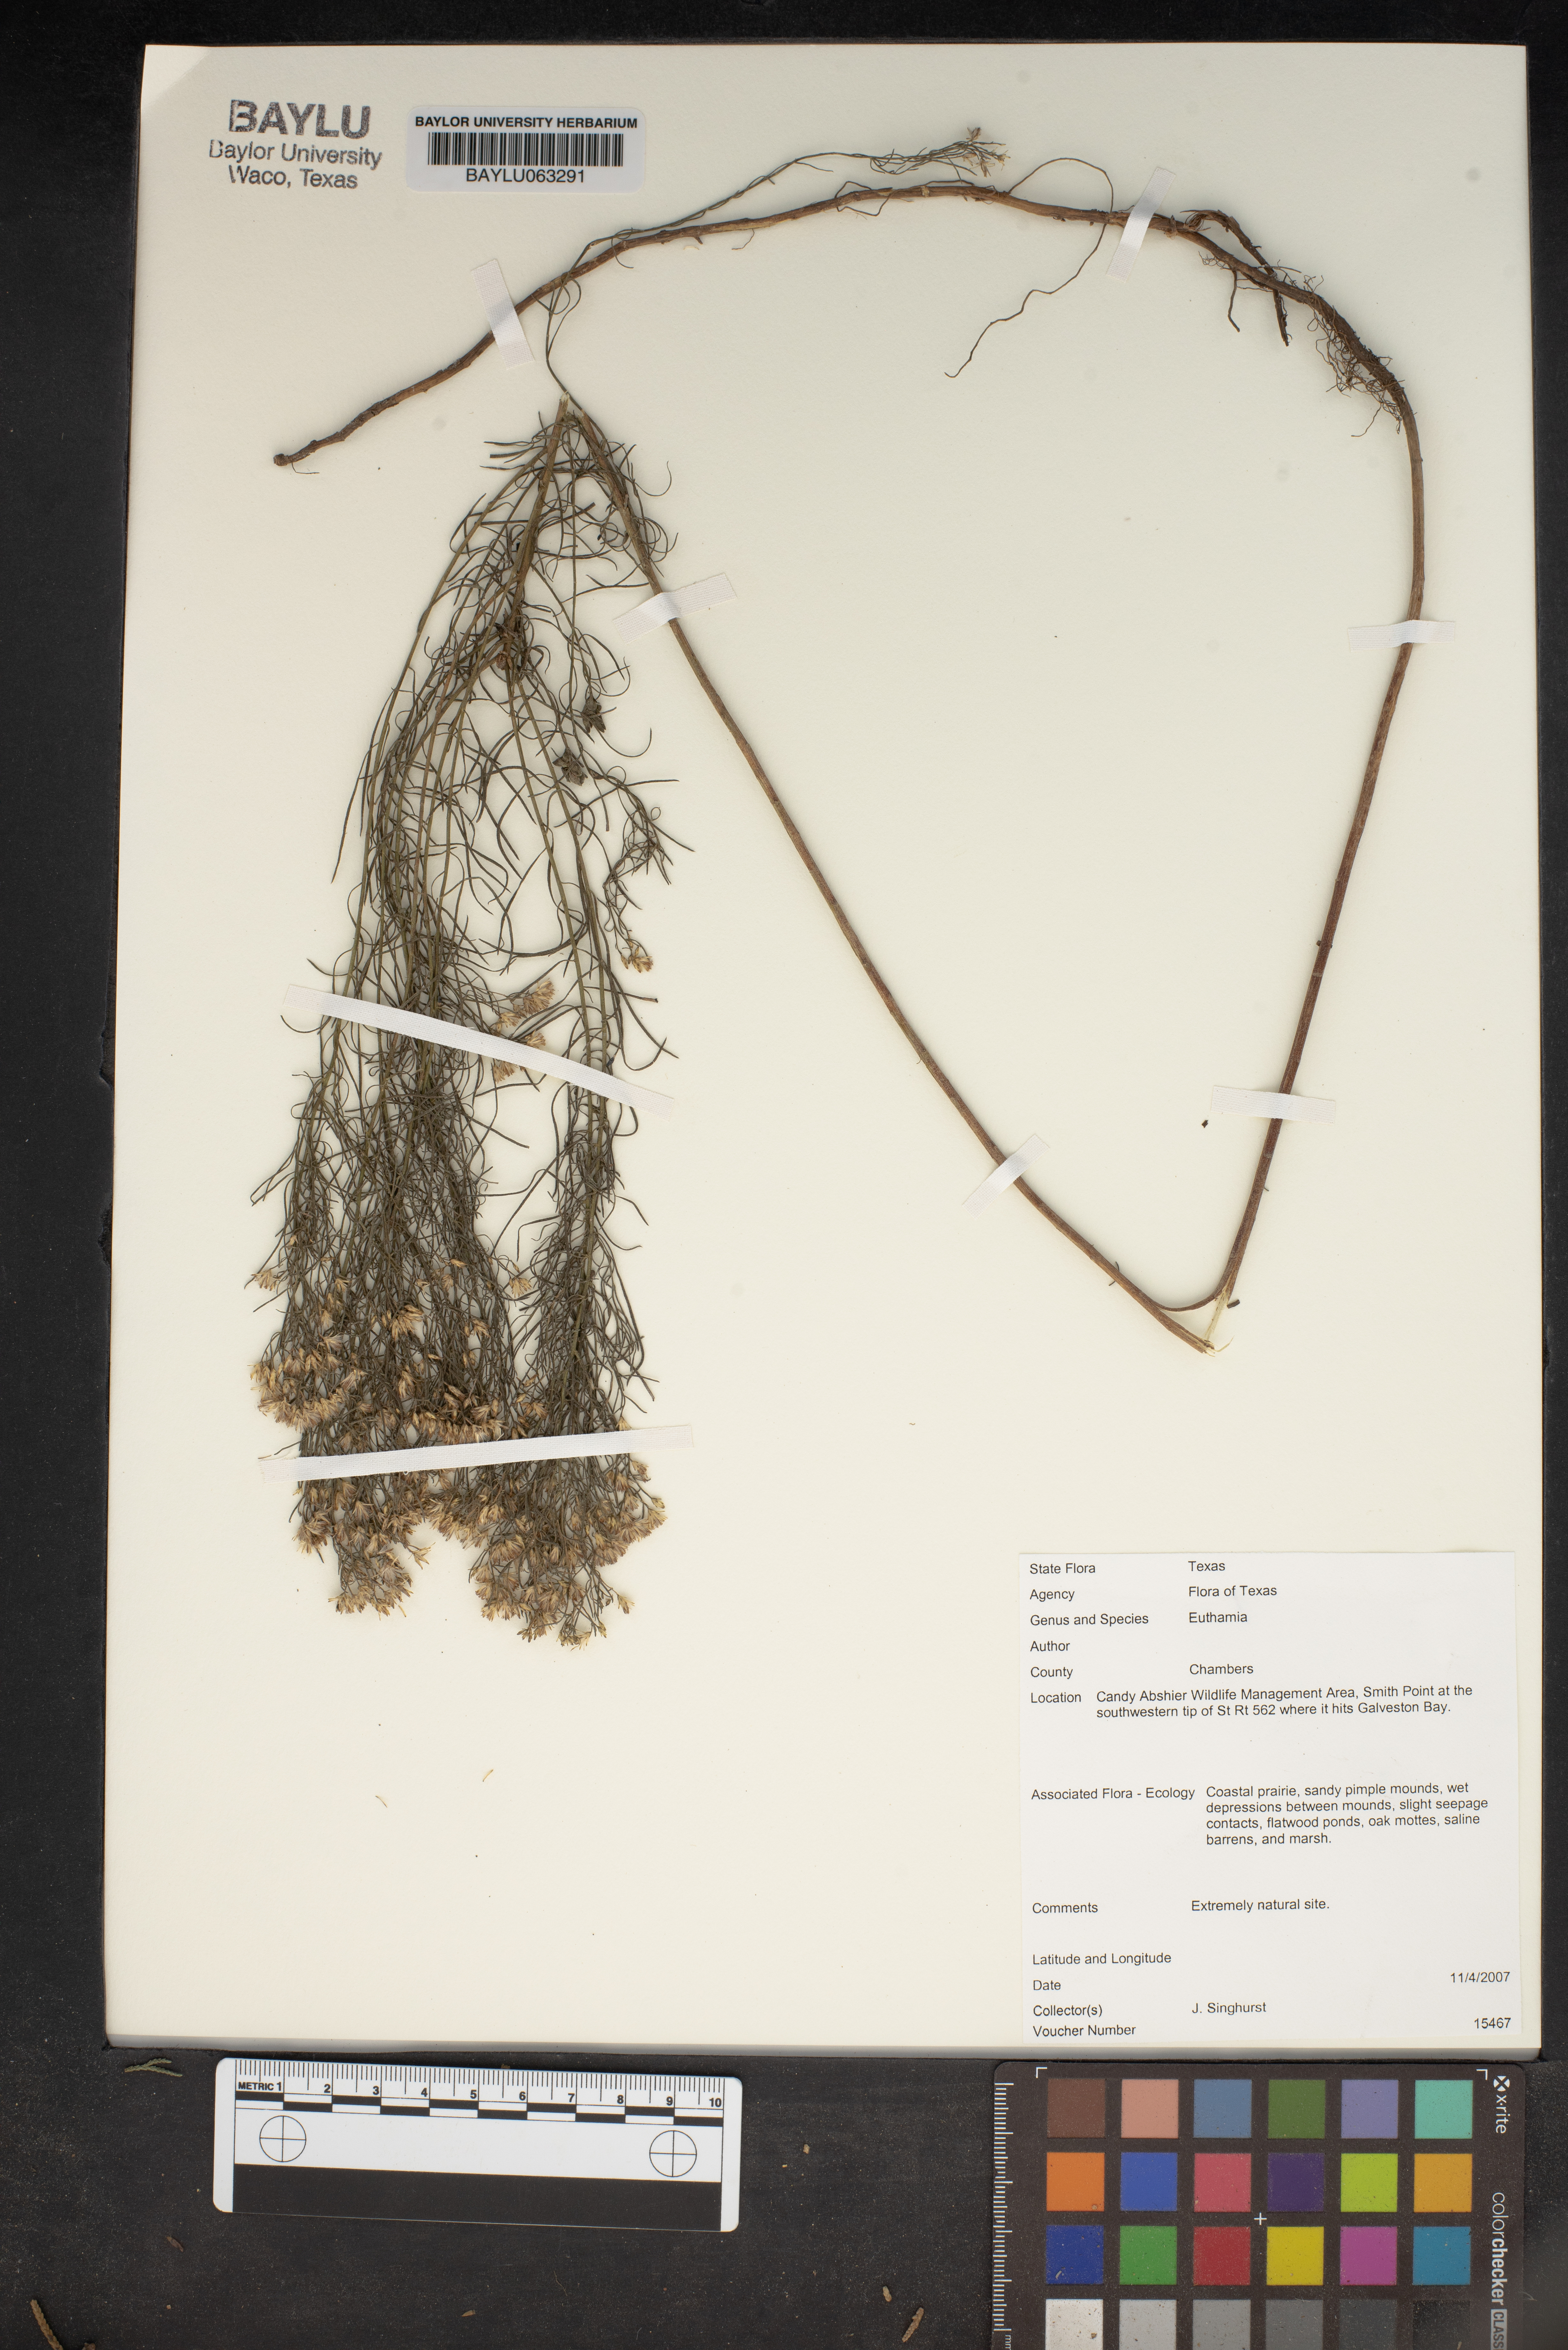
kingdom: Plantae
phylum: Tracheophyta
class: Magnoliopsida
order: Asterales
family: Asteraceae
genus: Euthamia
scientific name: Euthamia
